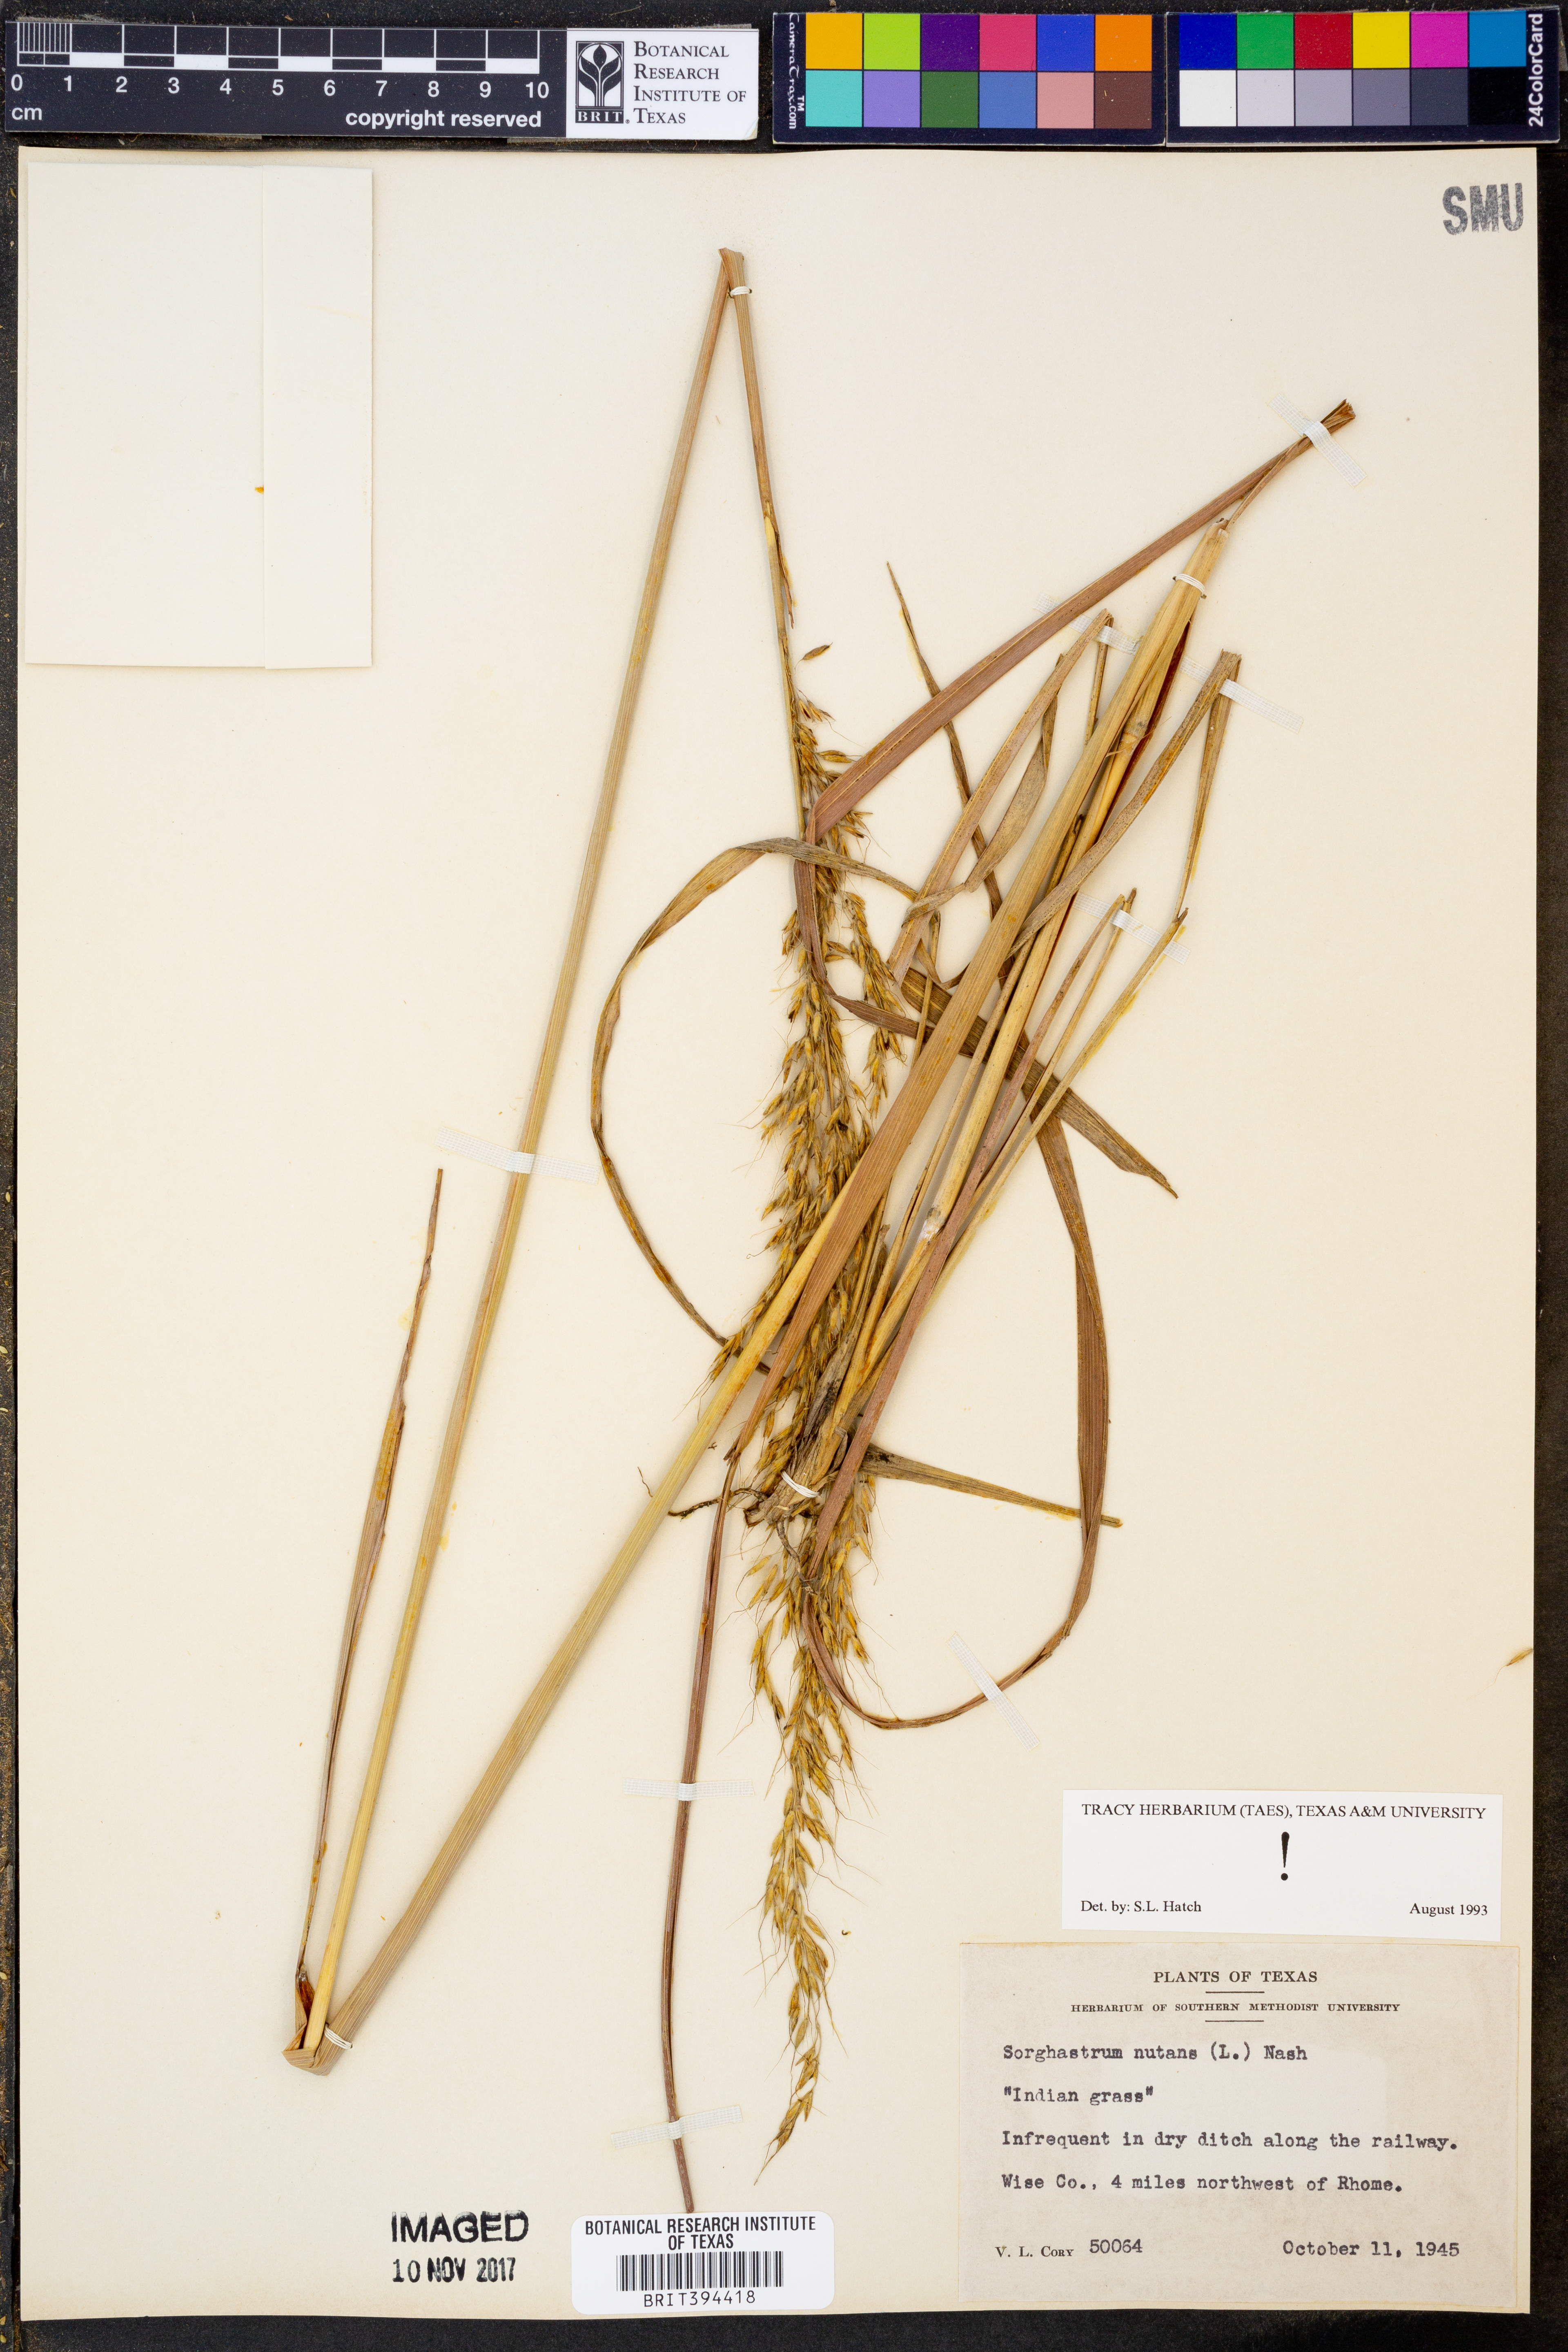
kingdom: Plantae
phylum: Tracheophyta
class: Liliopsida
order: Poales
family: Poaceae
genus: Sorghastrum
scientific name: Sorghastrum nutans
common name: Indian grass
